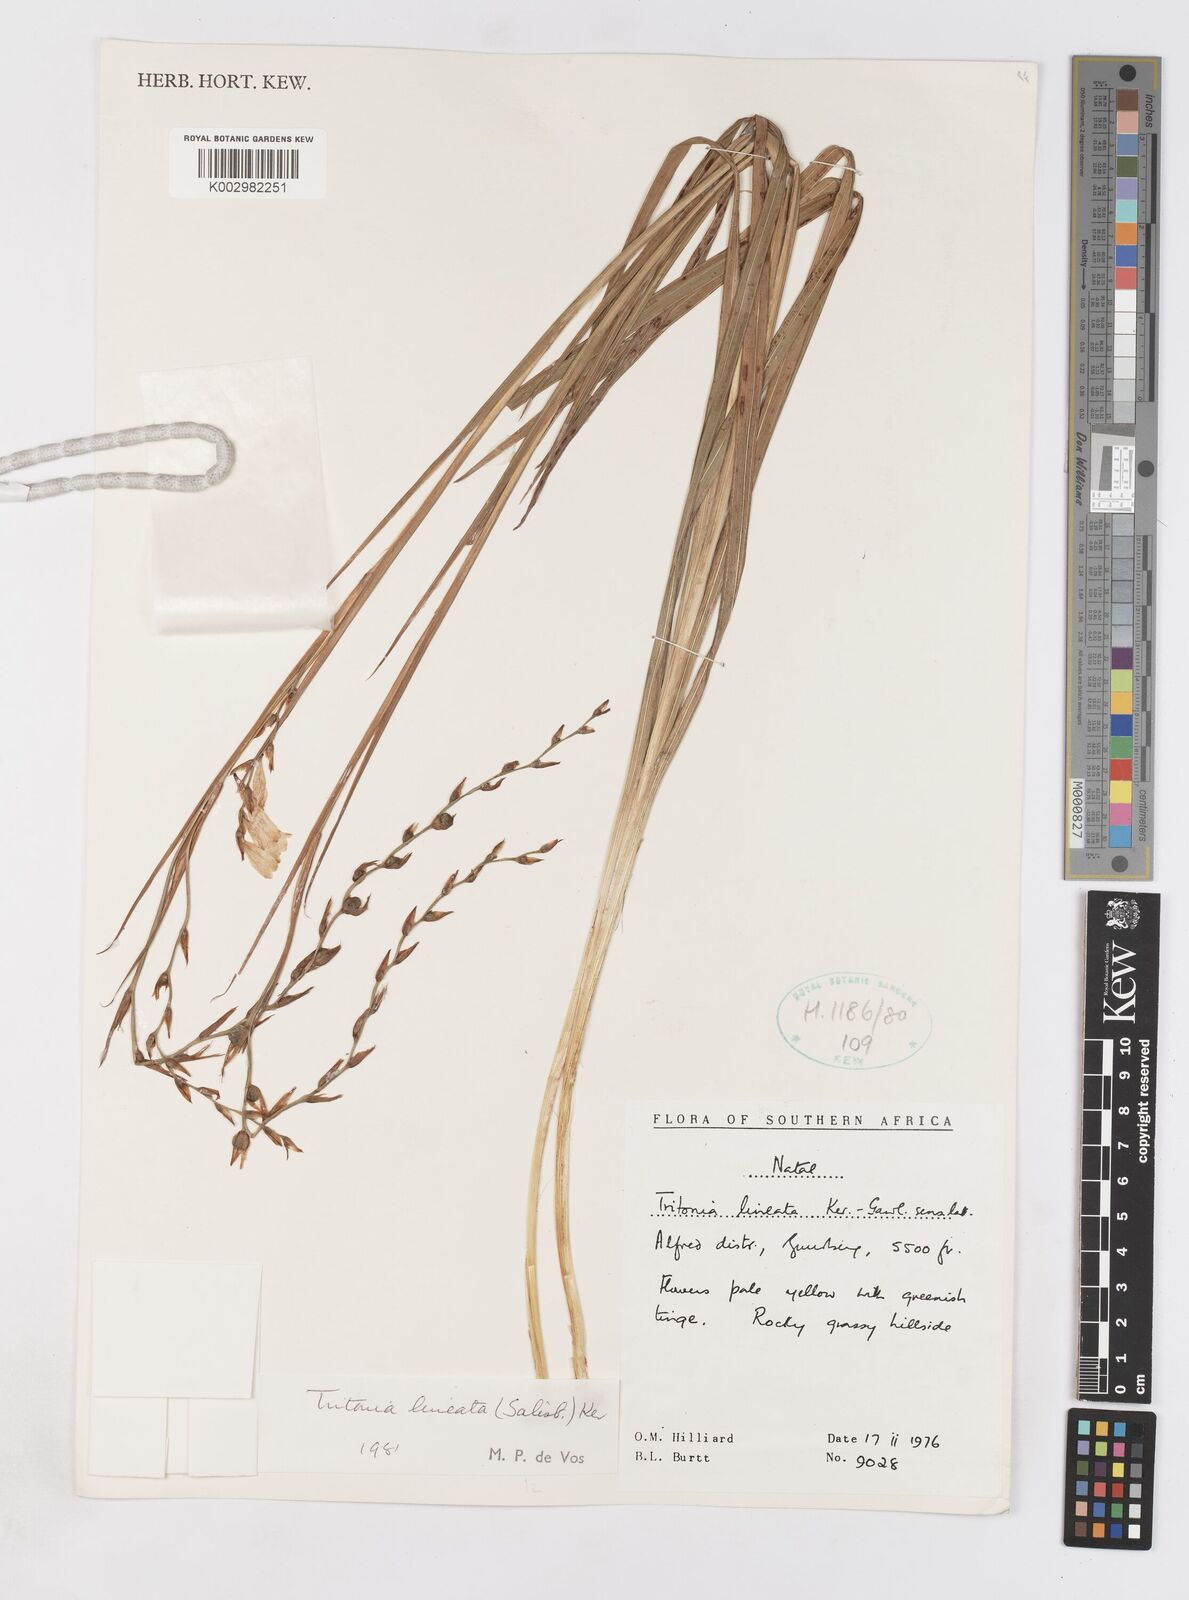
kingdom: Plantae
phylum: Tracheophyta
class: Liliopsida
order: Asparagales
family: Iridaceae
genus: Tritonia
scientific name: Tritonia gladiolaris
